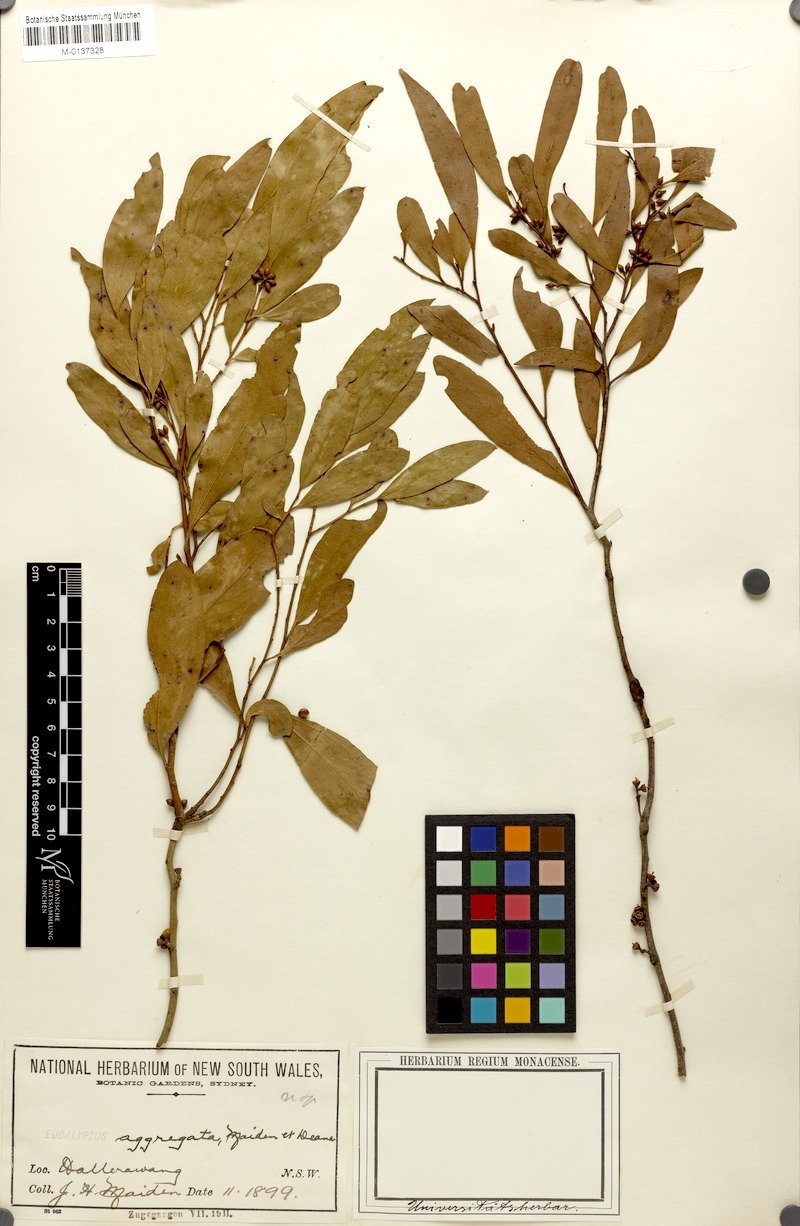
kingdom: Plantae
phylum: Tracheophyta
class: Magnoliopsida
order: Myrtales
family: Myrtaceae
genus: Eucalyptus
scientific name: Eucalyptus aggregata
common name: Black gum
